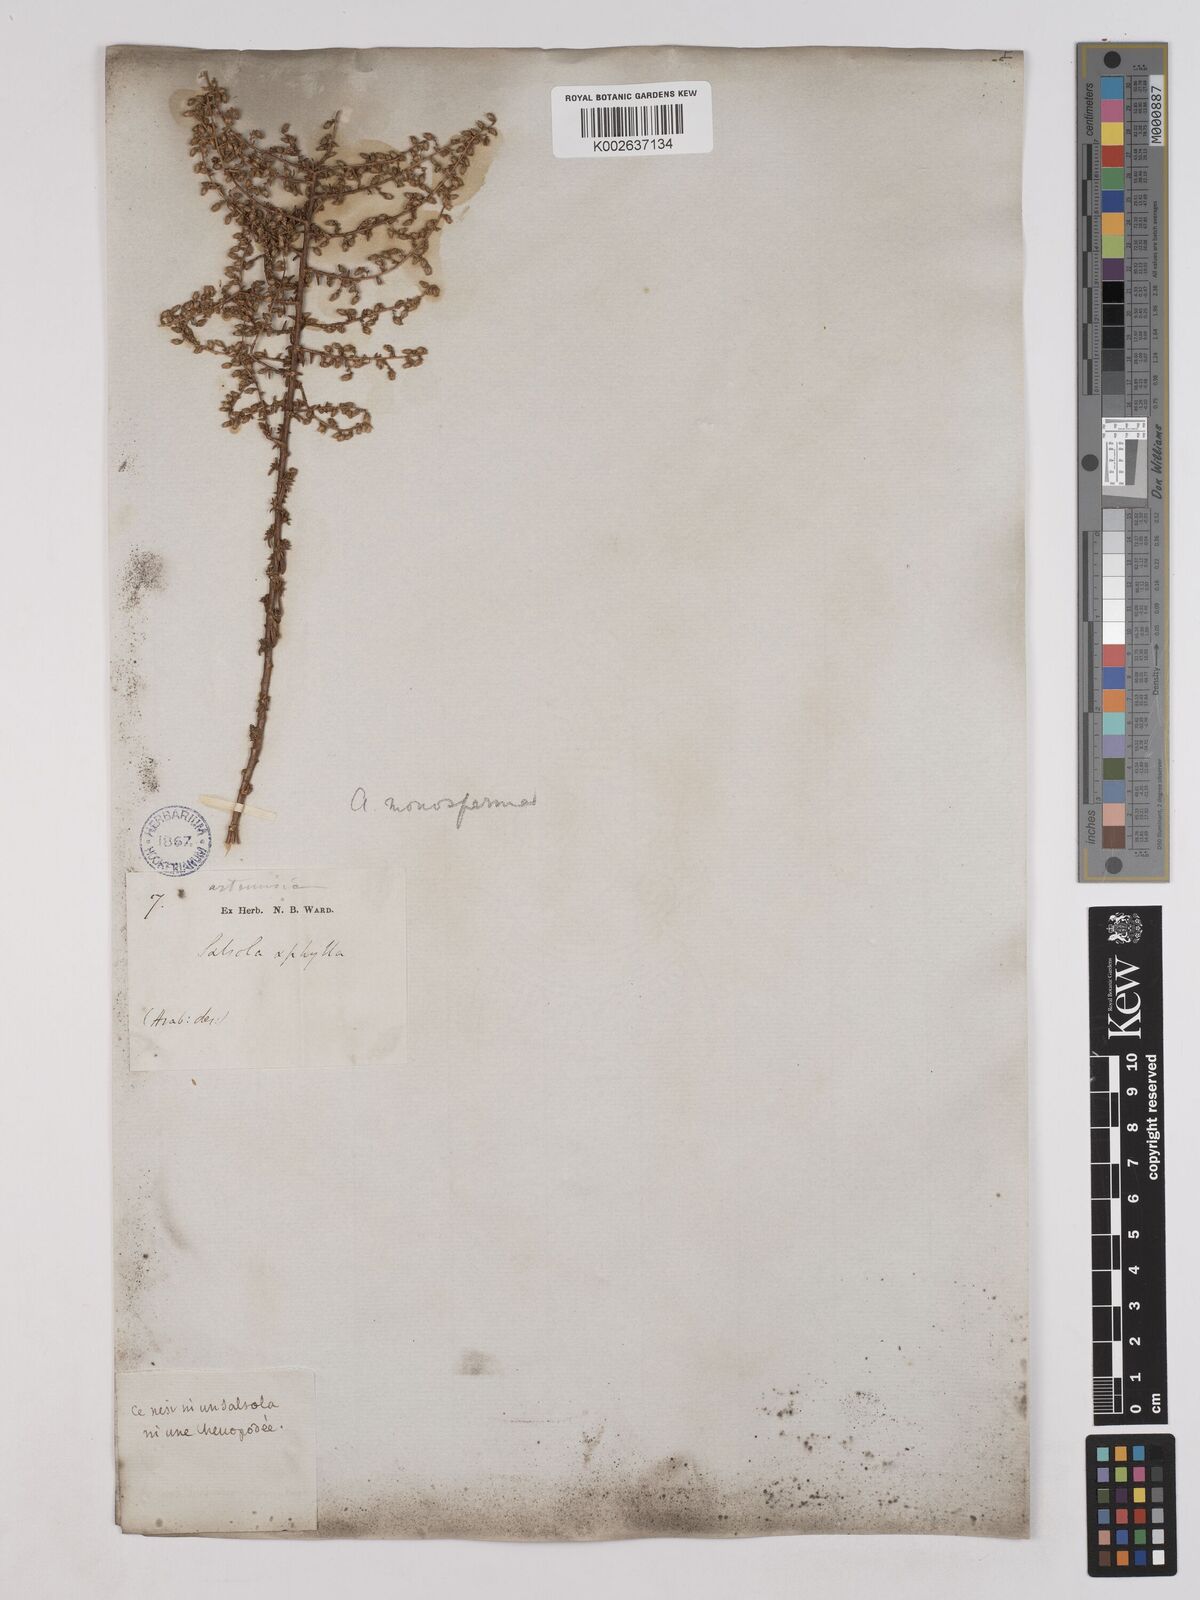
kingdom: Plantae
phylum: Tracheophyta
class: Magnoliopsida
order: Asterales
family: Asteraceae
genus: Artemisia
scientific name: Artemisia monosperma
